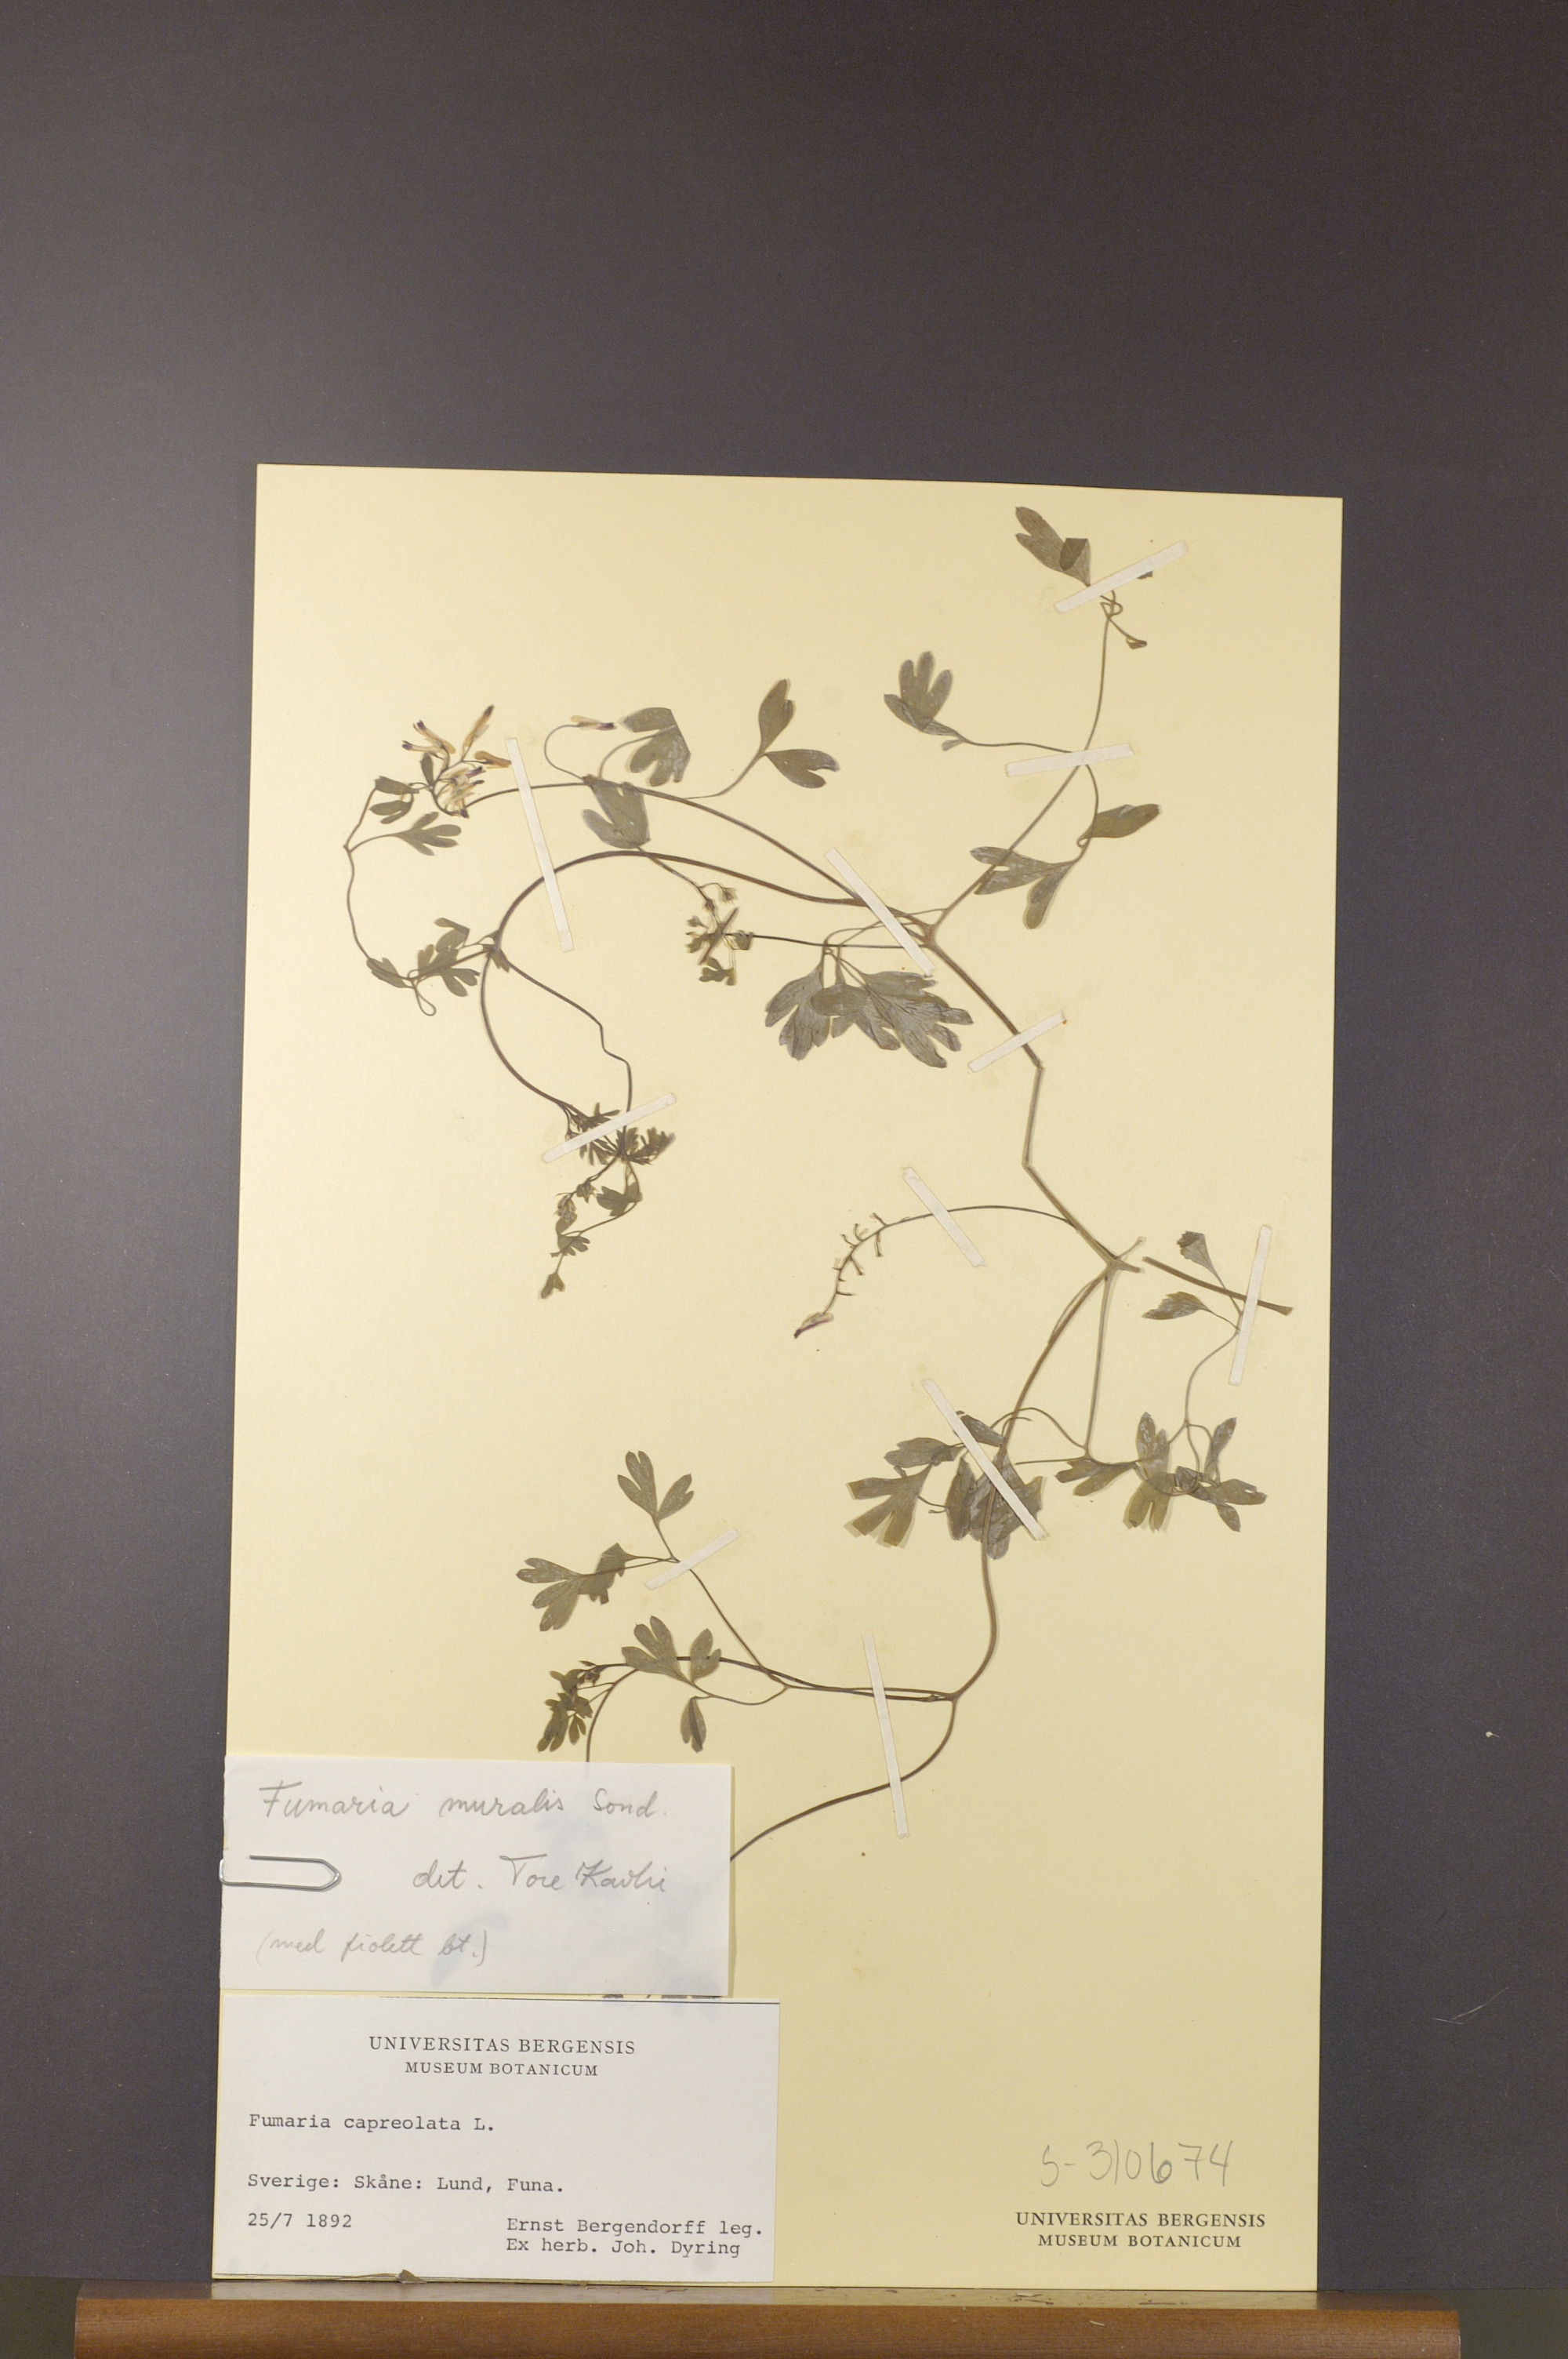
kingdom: Plantae
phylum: Tracheophyta
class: Magnoliopsida
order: Ranunculales
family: Papaveraceae
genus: Fumaria
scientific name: Fumaria muralis
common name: Common ramping-fumitory
